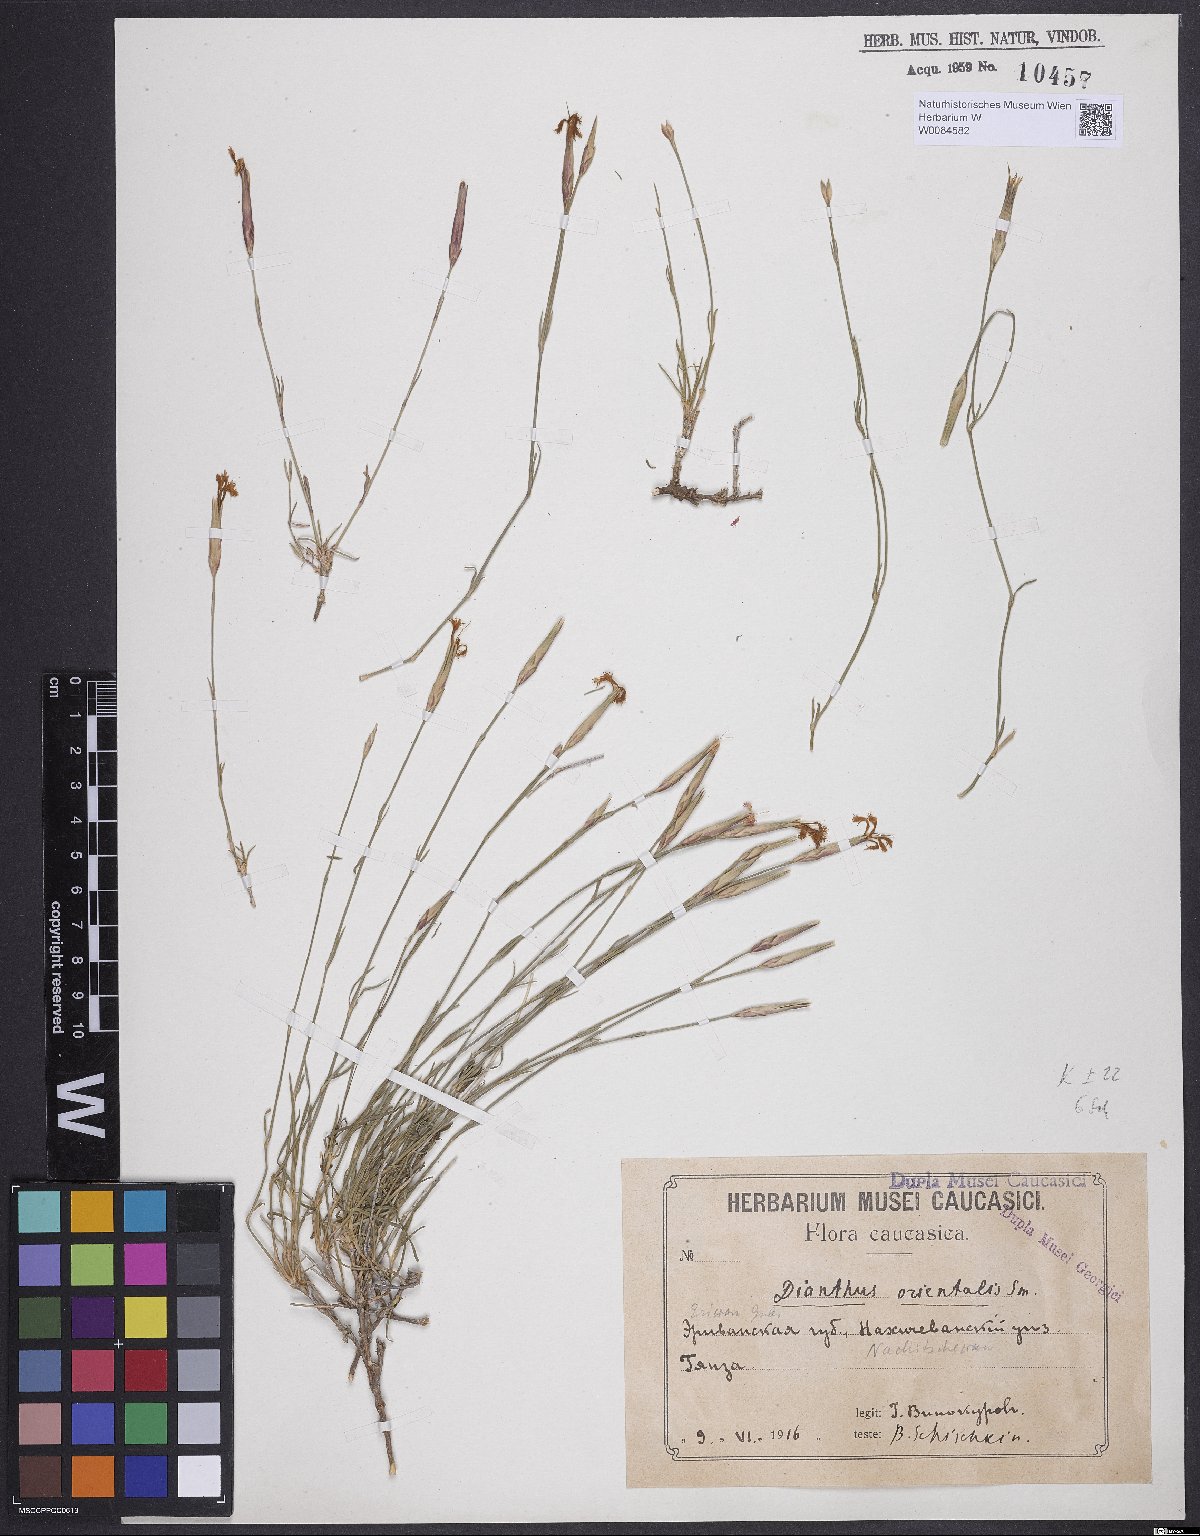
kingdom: Plantae
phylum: Tracheophyta
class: Magnoliopsida
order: Caryophyllales
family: Caryophyllaceae
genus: Dianthus
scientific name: Dianthus orientalis
